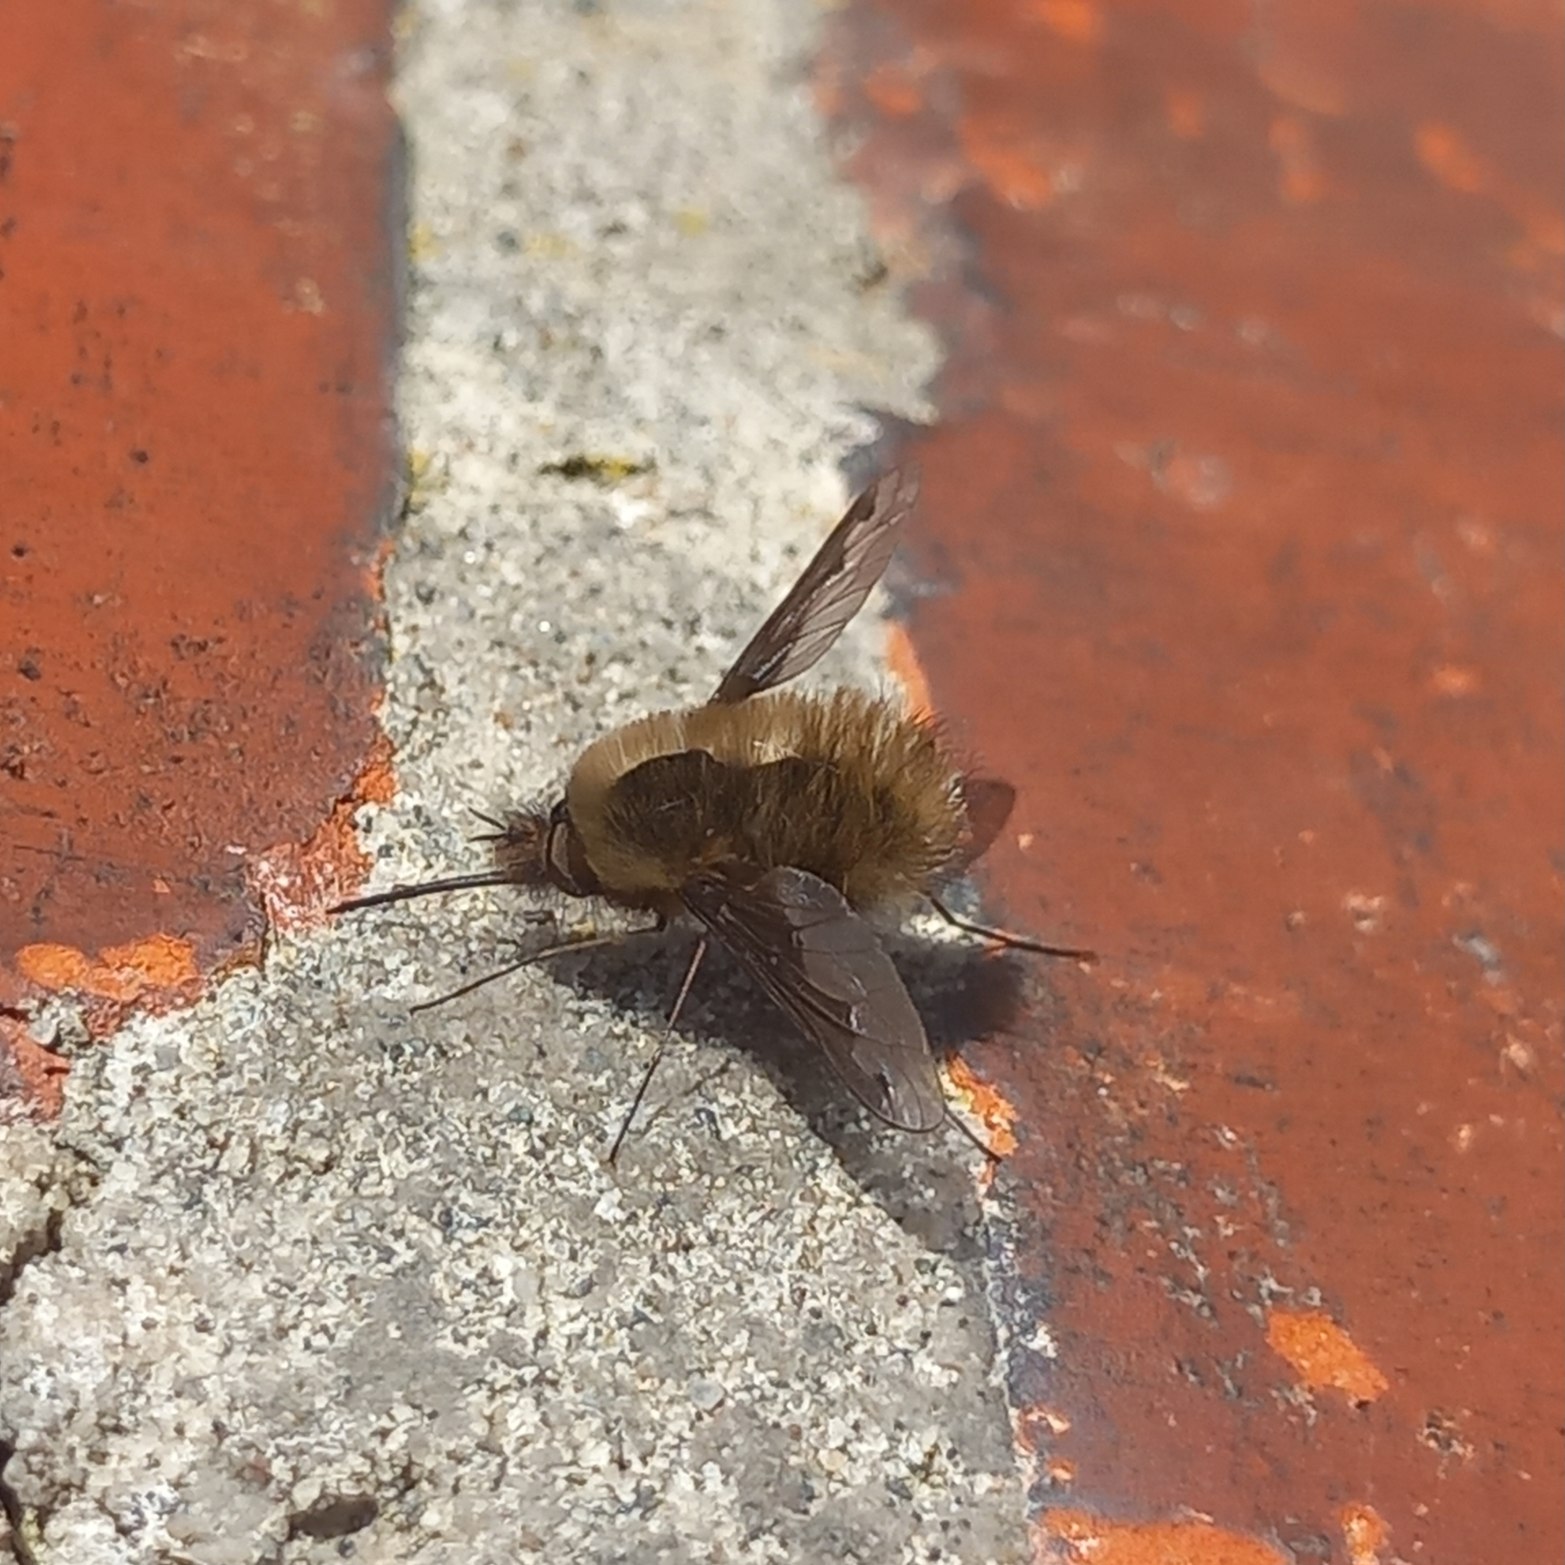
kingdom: Animalia
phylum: Arthropoda
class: Insecta
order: Diptera
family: Bombyliidae
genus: Bombylius
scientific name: Bombylius major
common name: Stor humleflue
